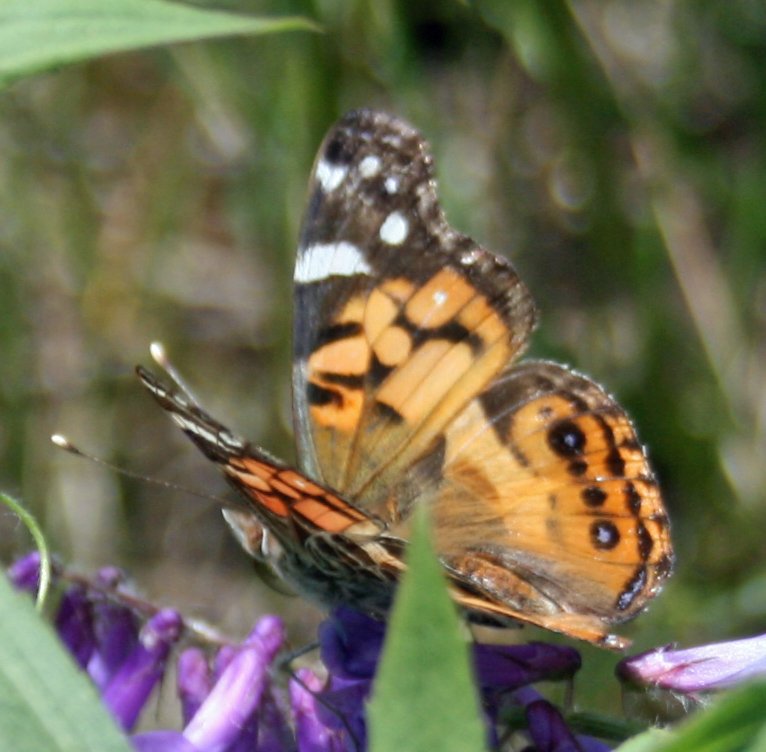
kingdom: Animalia
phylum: Arthropoda
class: Insecta
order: Lepidoptera
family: Nymphalidae
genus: Vanessa
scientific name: Vanessa virginiensis
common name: American Lady
